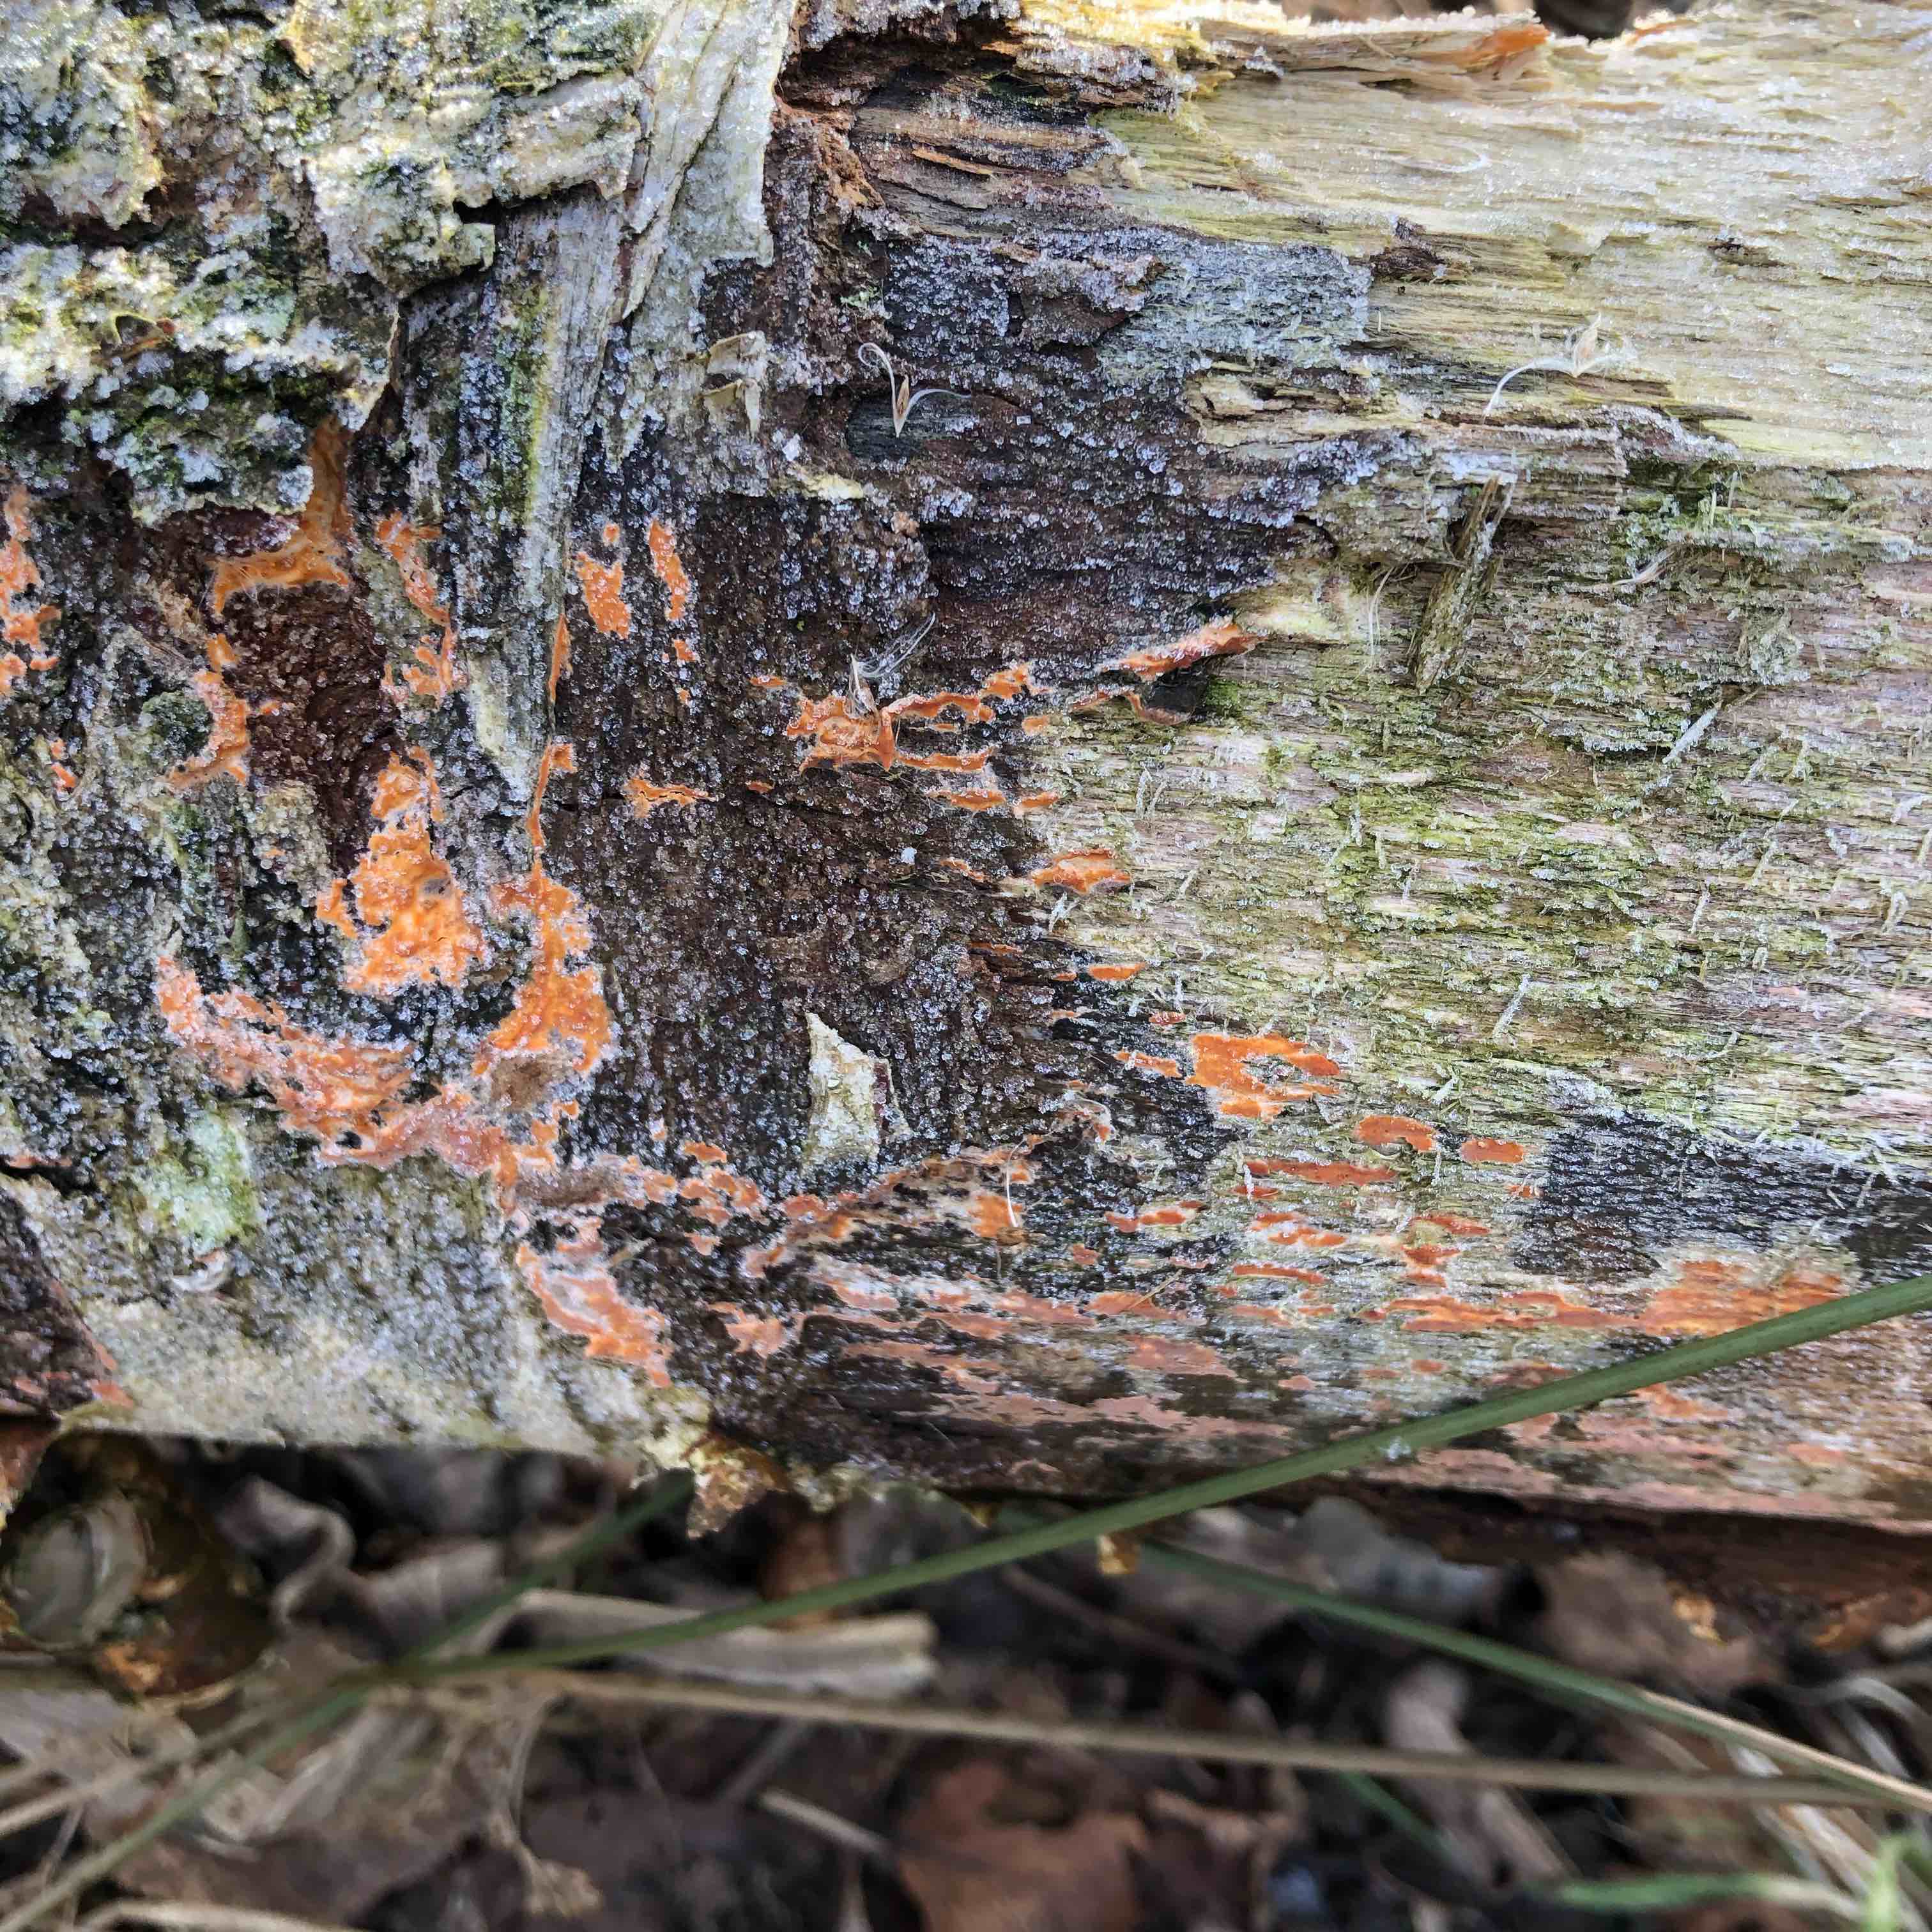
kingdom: Fungi
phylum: Basidiomycota
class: Agaricomycetes
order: Russulales
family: Peniophoraceae
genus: Peniophora
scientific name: Peniophora incarnata
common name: laksefarvet voksskind
